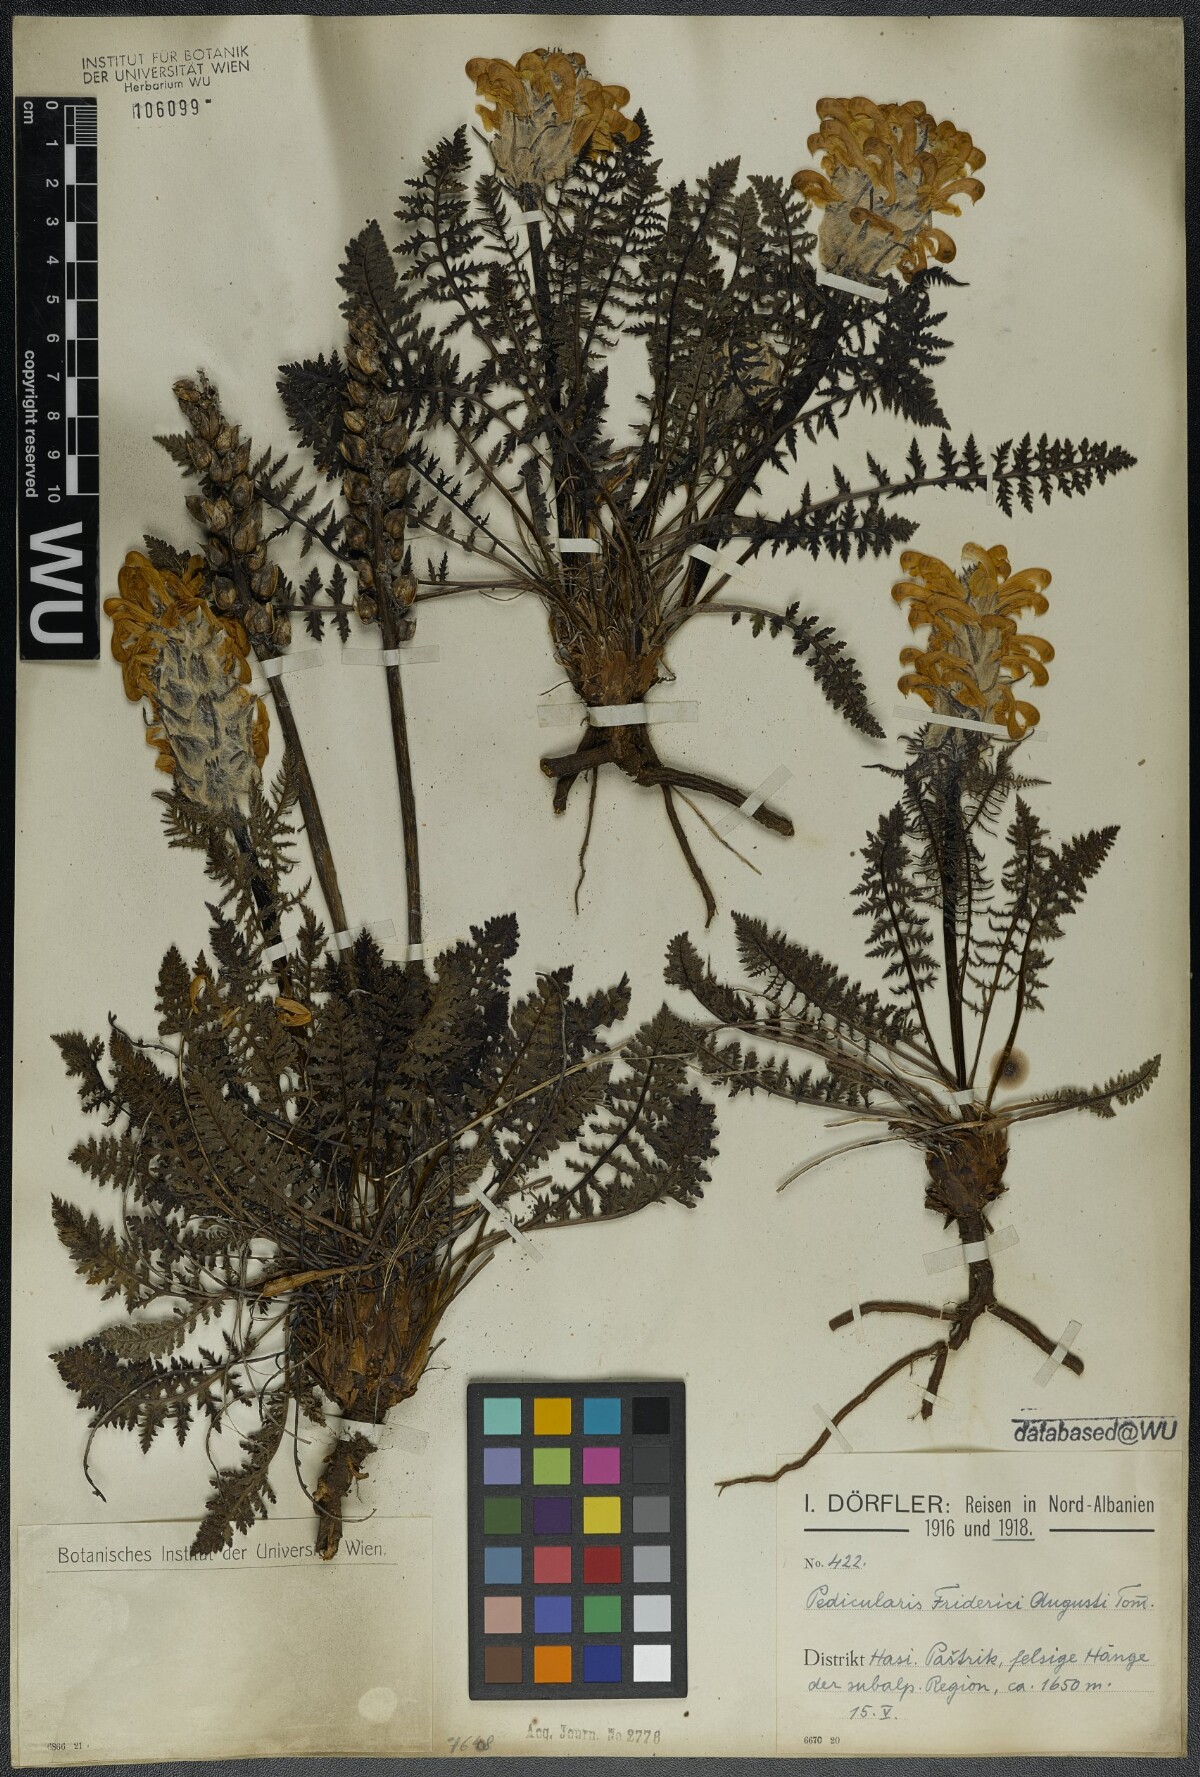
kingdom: Plantae
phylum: Tracheophyta
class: Magnoliopsida
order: Lamiales
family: Orobanchaceae
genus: Pedicularis
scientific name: Pedicularis friderici-augusti
